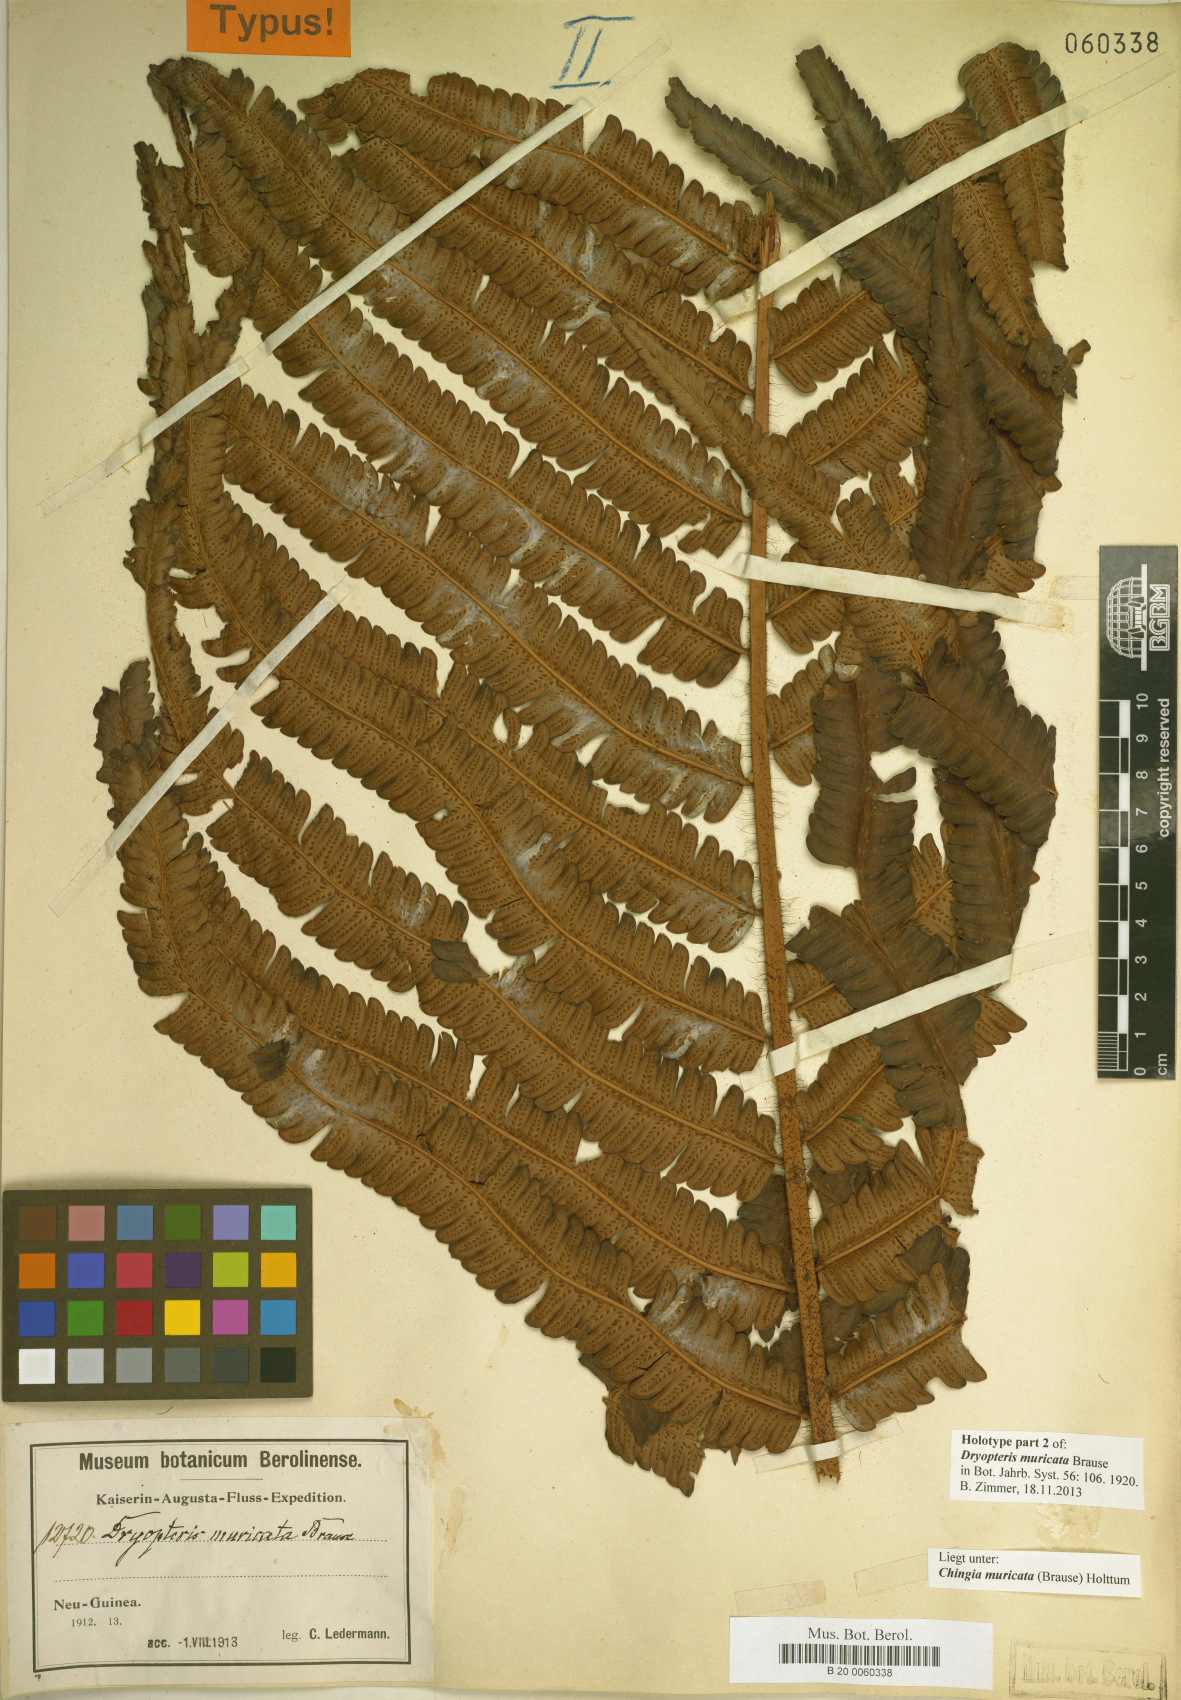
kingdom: Plantae
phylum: Tracheophyta
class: Polypodiopsida
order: Polypodiales
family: Thelypteridaceae
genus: Chingia
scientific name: Chingia muricata
